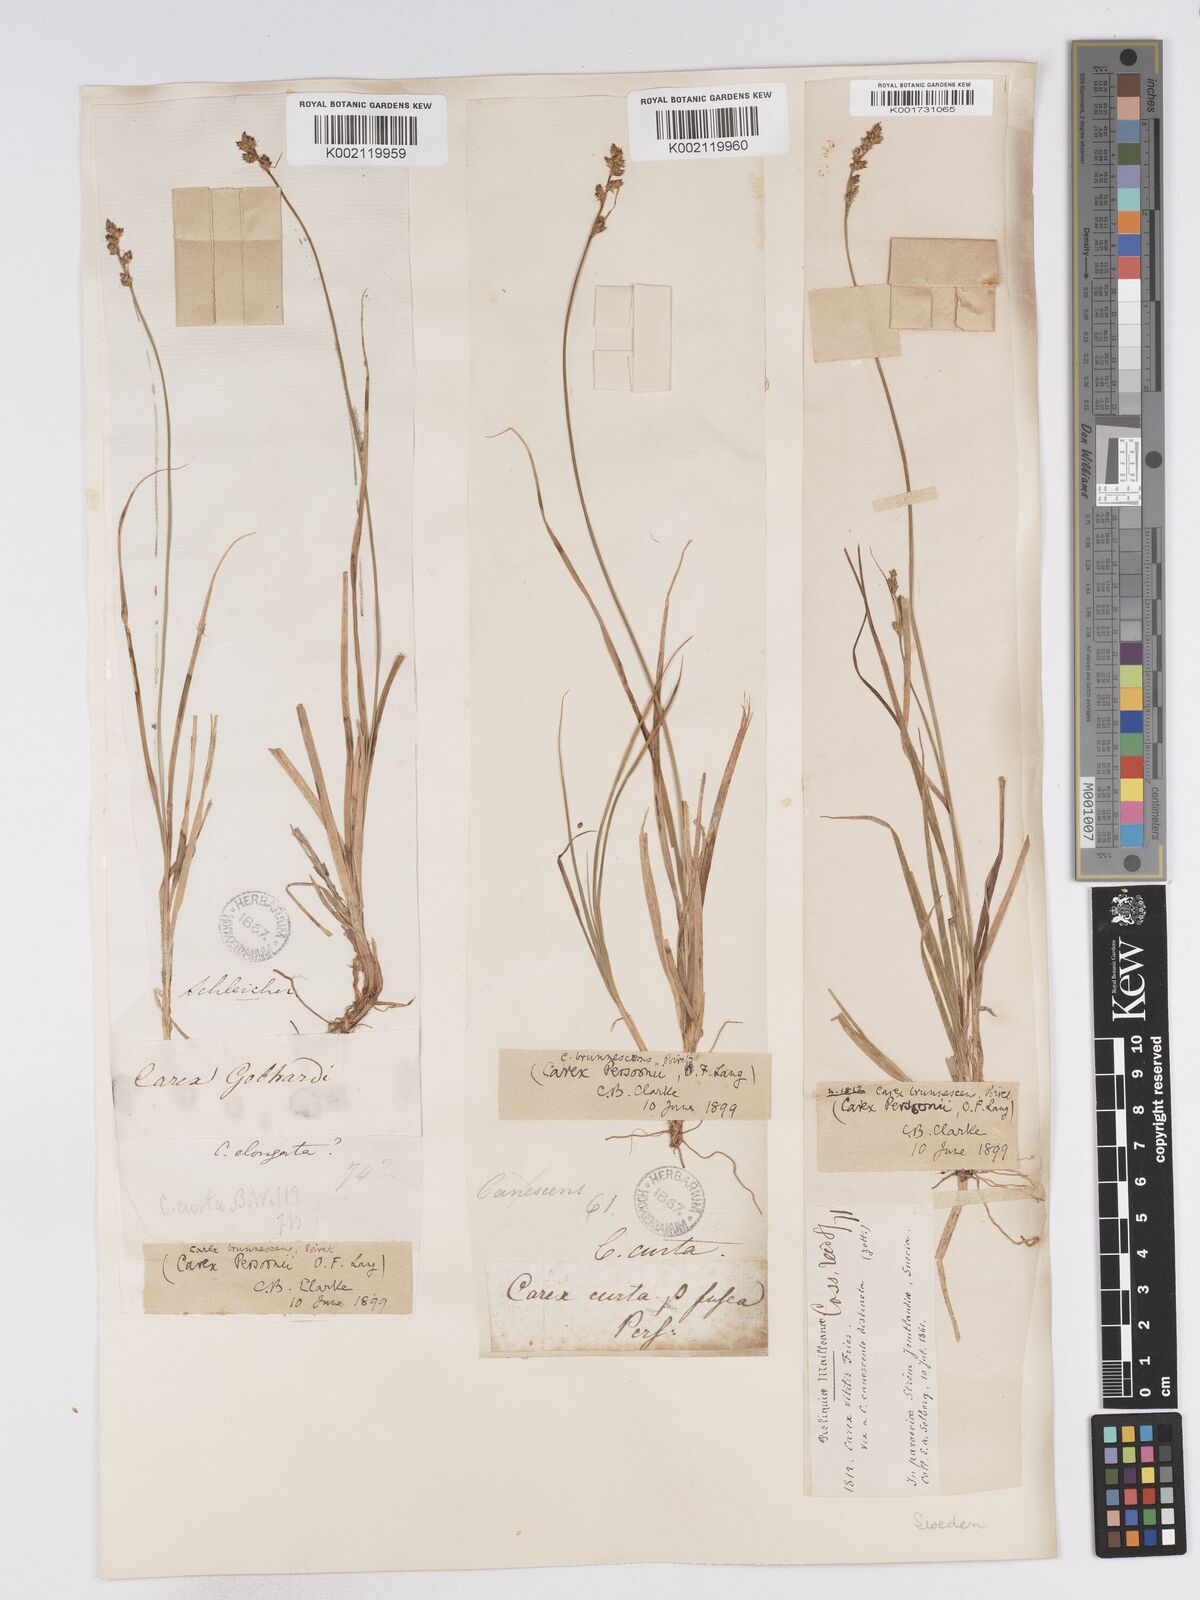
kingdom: Plantae
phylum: Tracheophyta
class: Liliopsida
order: Poales
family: Cyperaceae
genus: Carex
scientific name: Carex canescens
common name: White sedge
